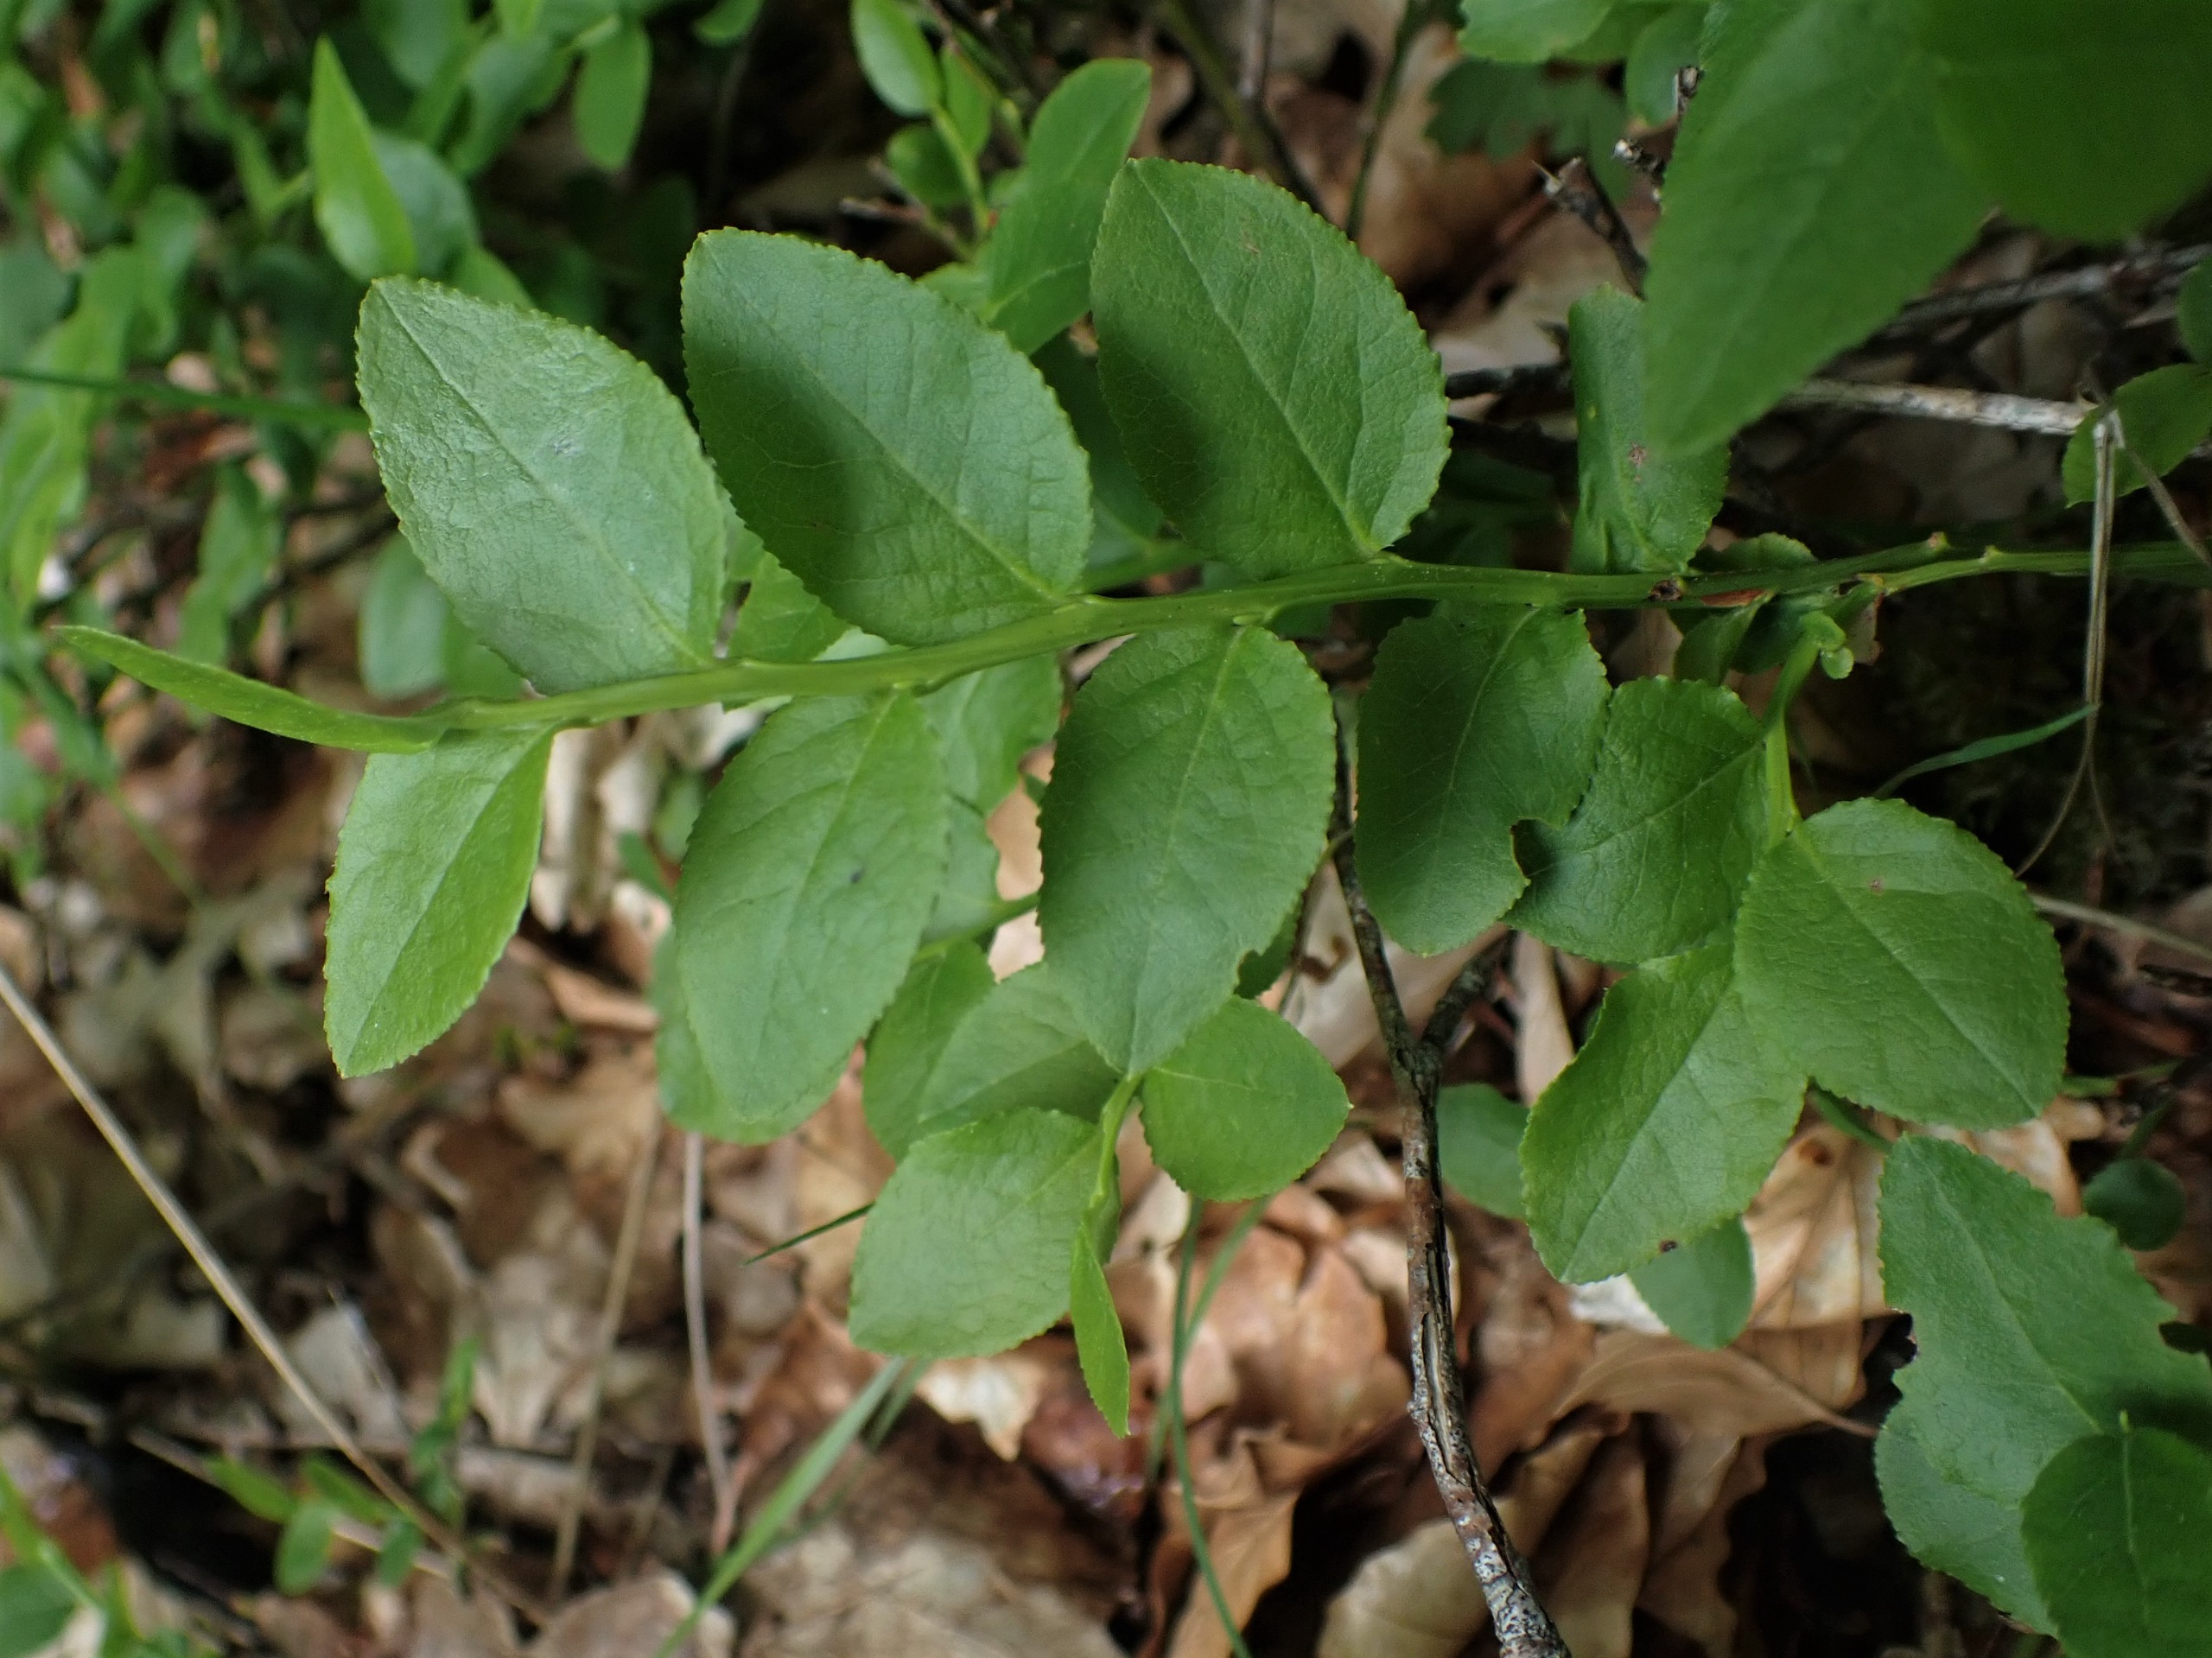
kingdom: Plantae
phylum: Tracheophyta
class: Magnoliopsida
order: Ericales
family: Ericaceae
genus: Vaccinium
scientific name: Vaccinium myrtillus
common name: Blåbær
